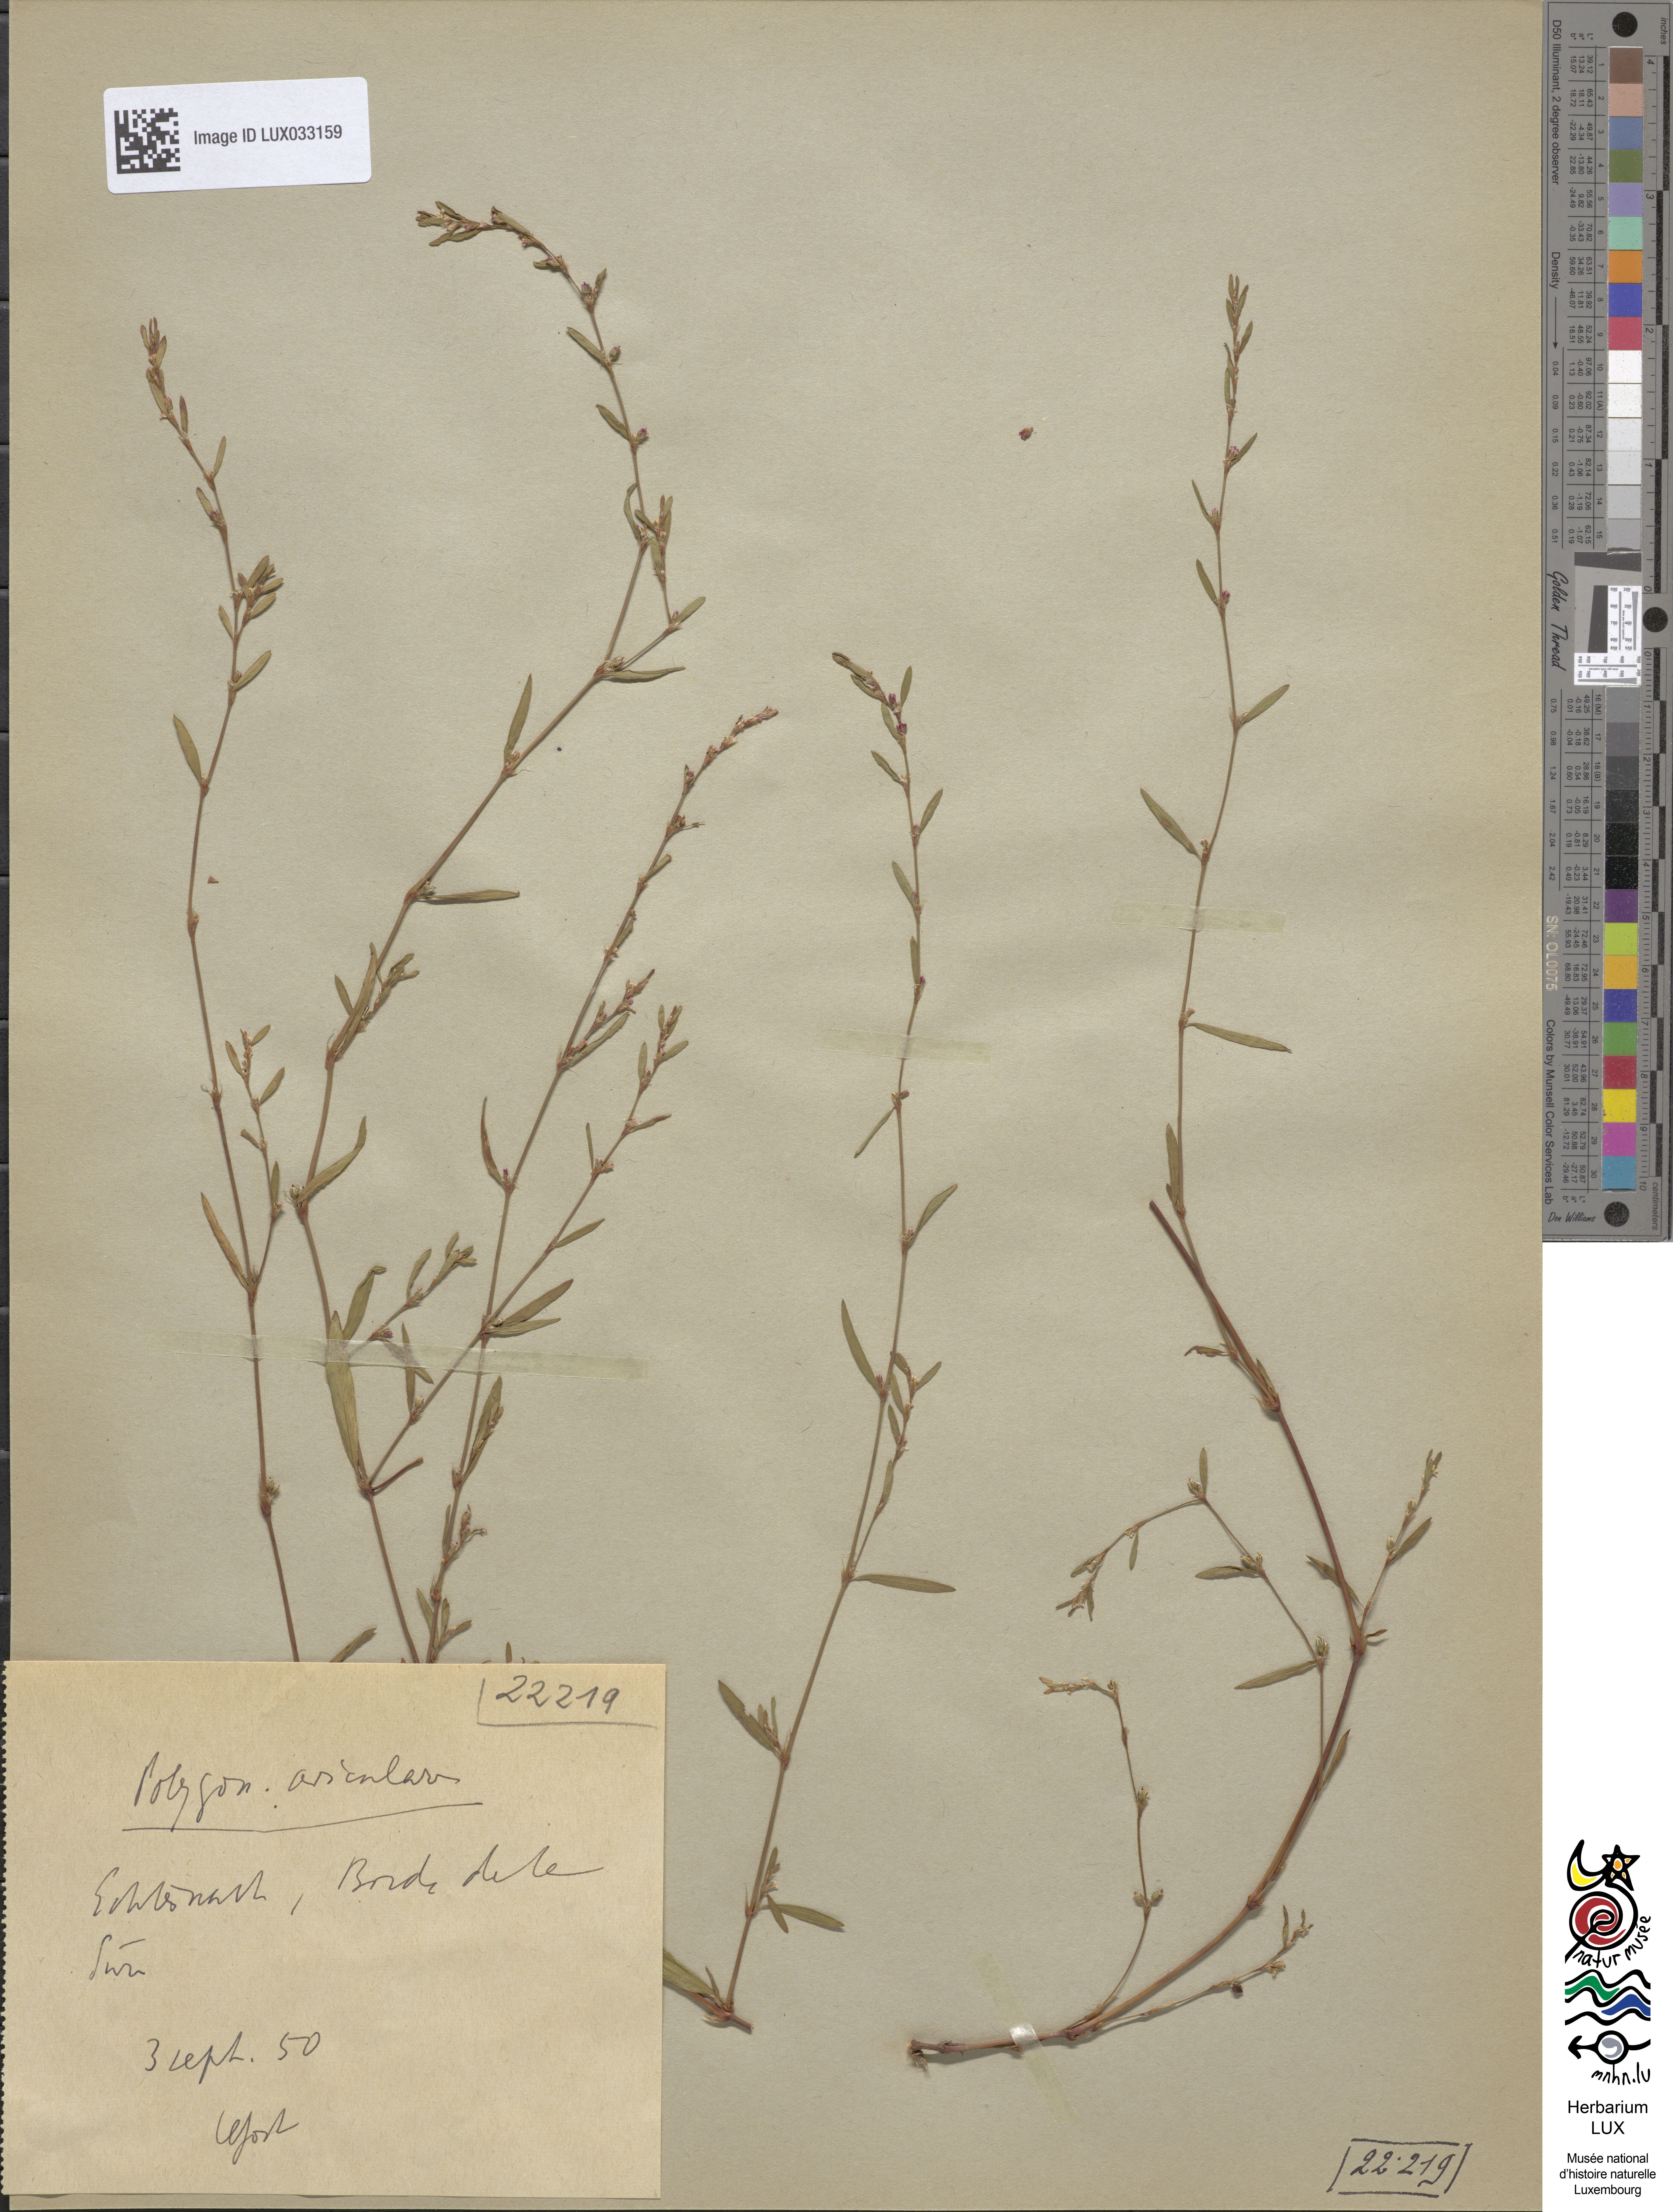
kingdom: Plantae
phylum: Tracheophyta
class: Magnoliopsida
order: Caryophyllales
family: Polygonaceae
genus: Polygonum
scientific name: Polygonum aviculare
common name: Prostrate knotweed
